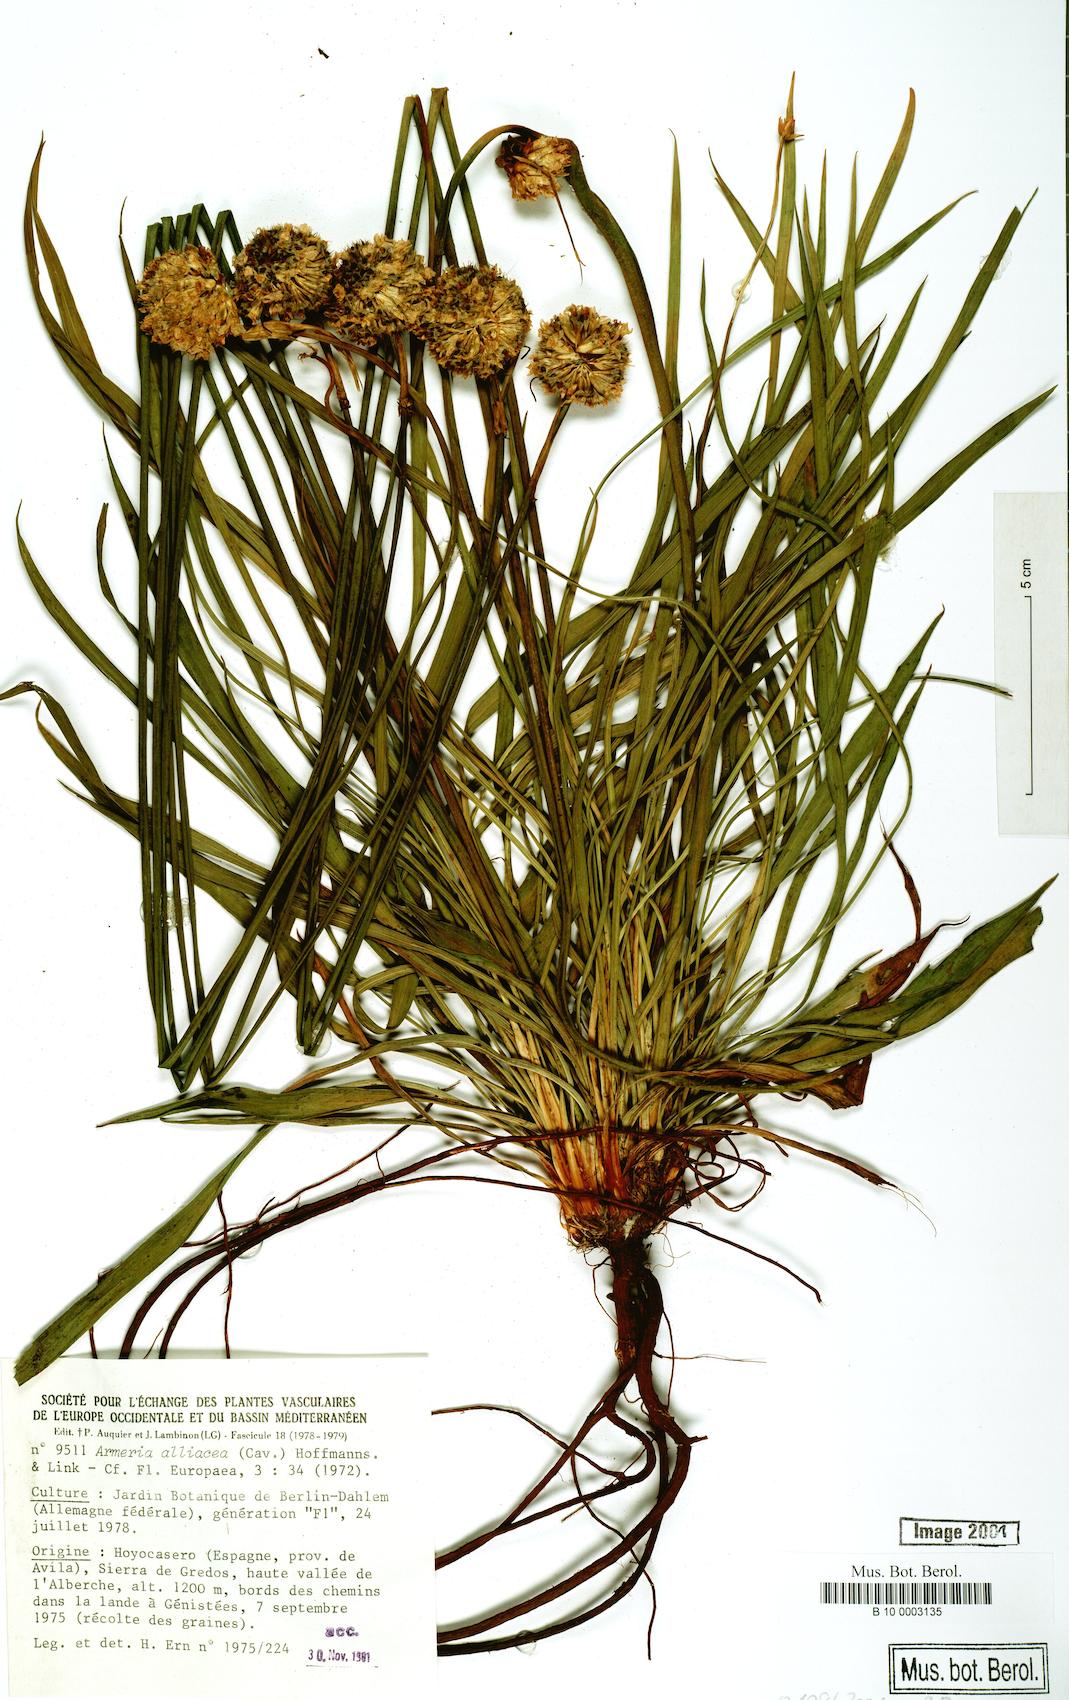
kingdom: Plantae
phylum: Tracheophyta
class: Magnoliopsida
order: Caryophyllales
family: Plumbaginaceae
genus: Armeria
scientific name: Armeria alliacea
